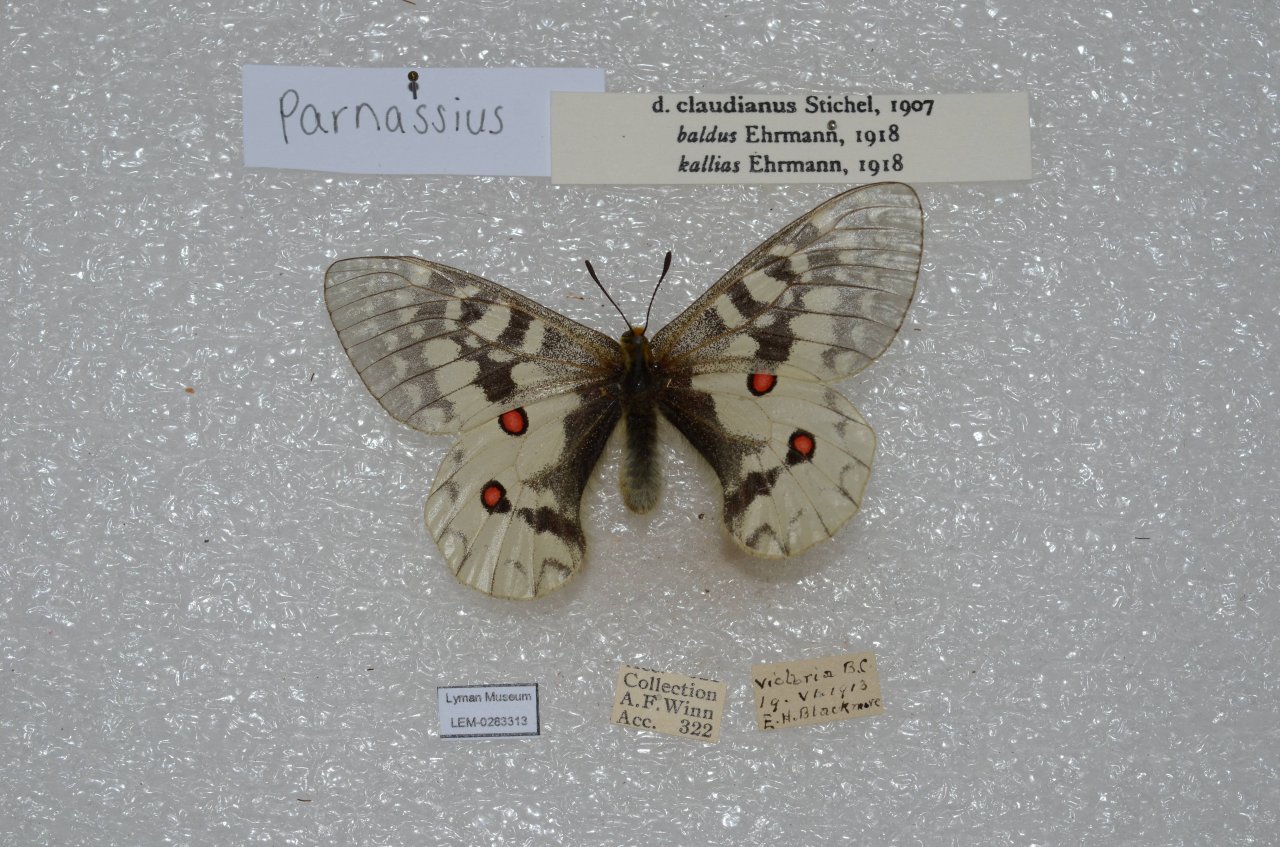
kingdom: Animalia
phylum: Arthropoda
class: Insecta
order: Lepidoptera
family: Papilionidae
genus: Parnassius
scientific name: Parnassius clodius
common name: Clodius Parnassian
